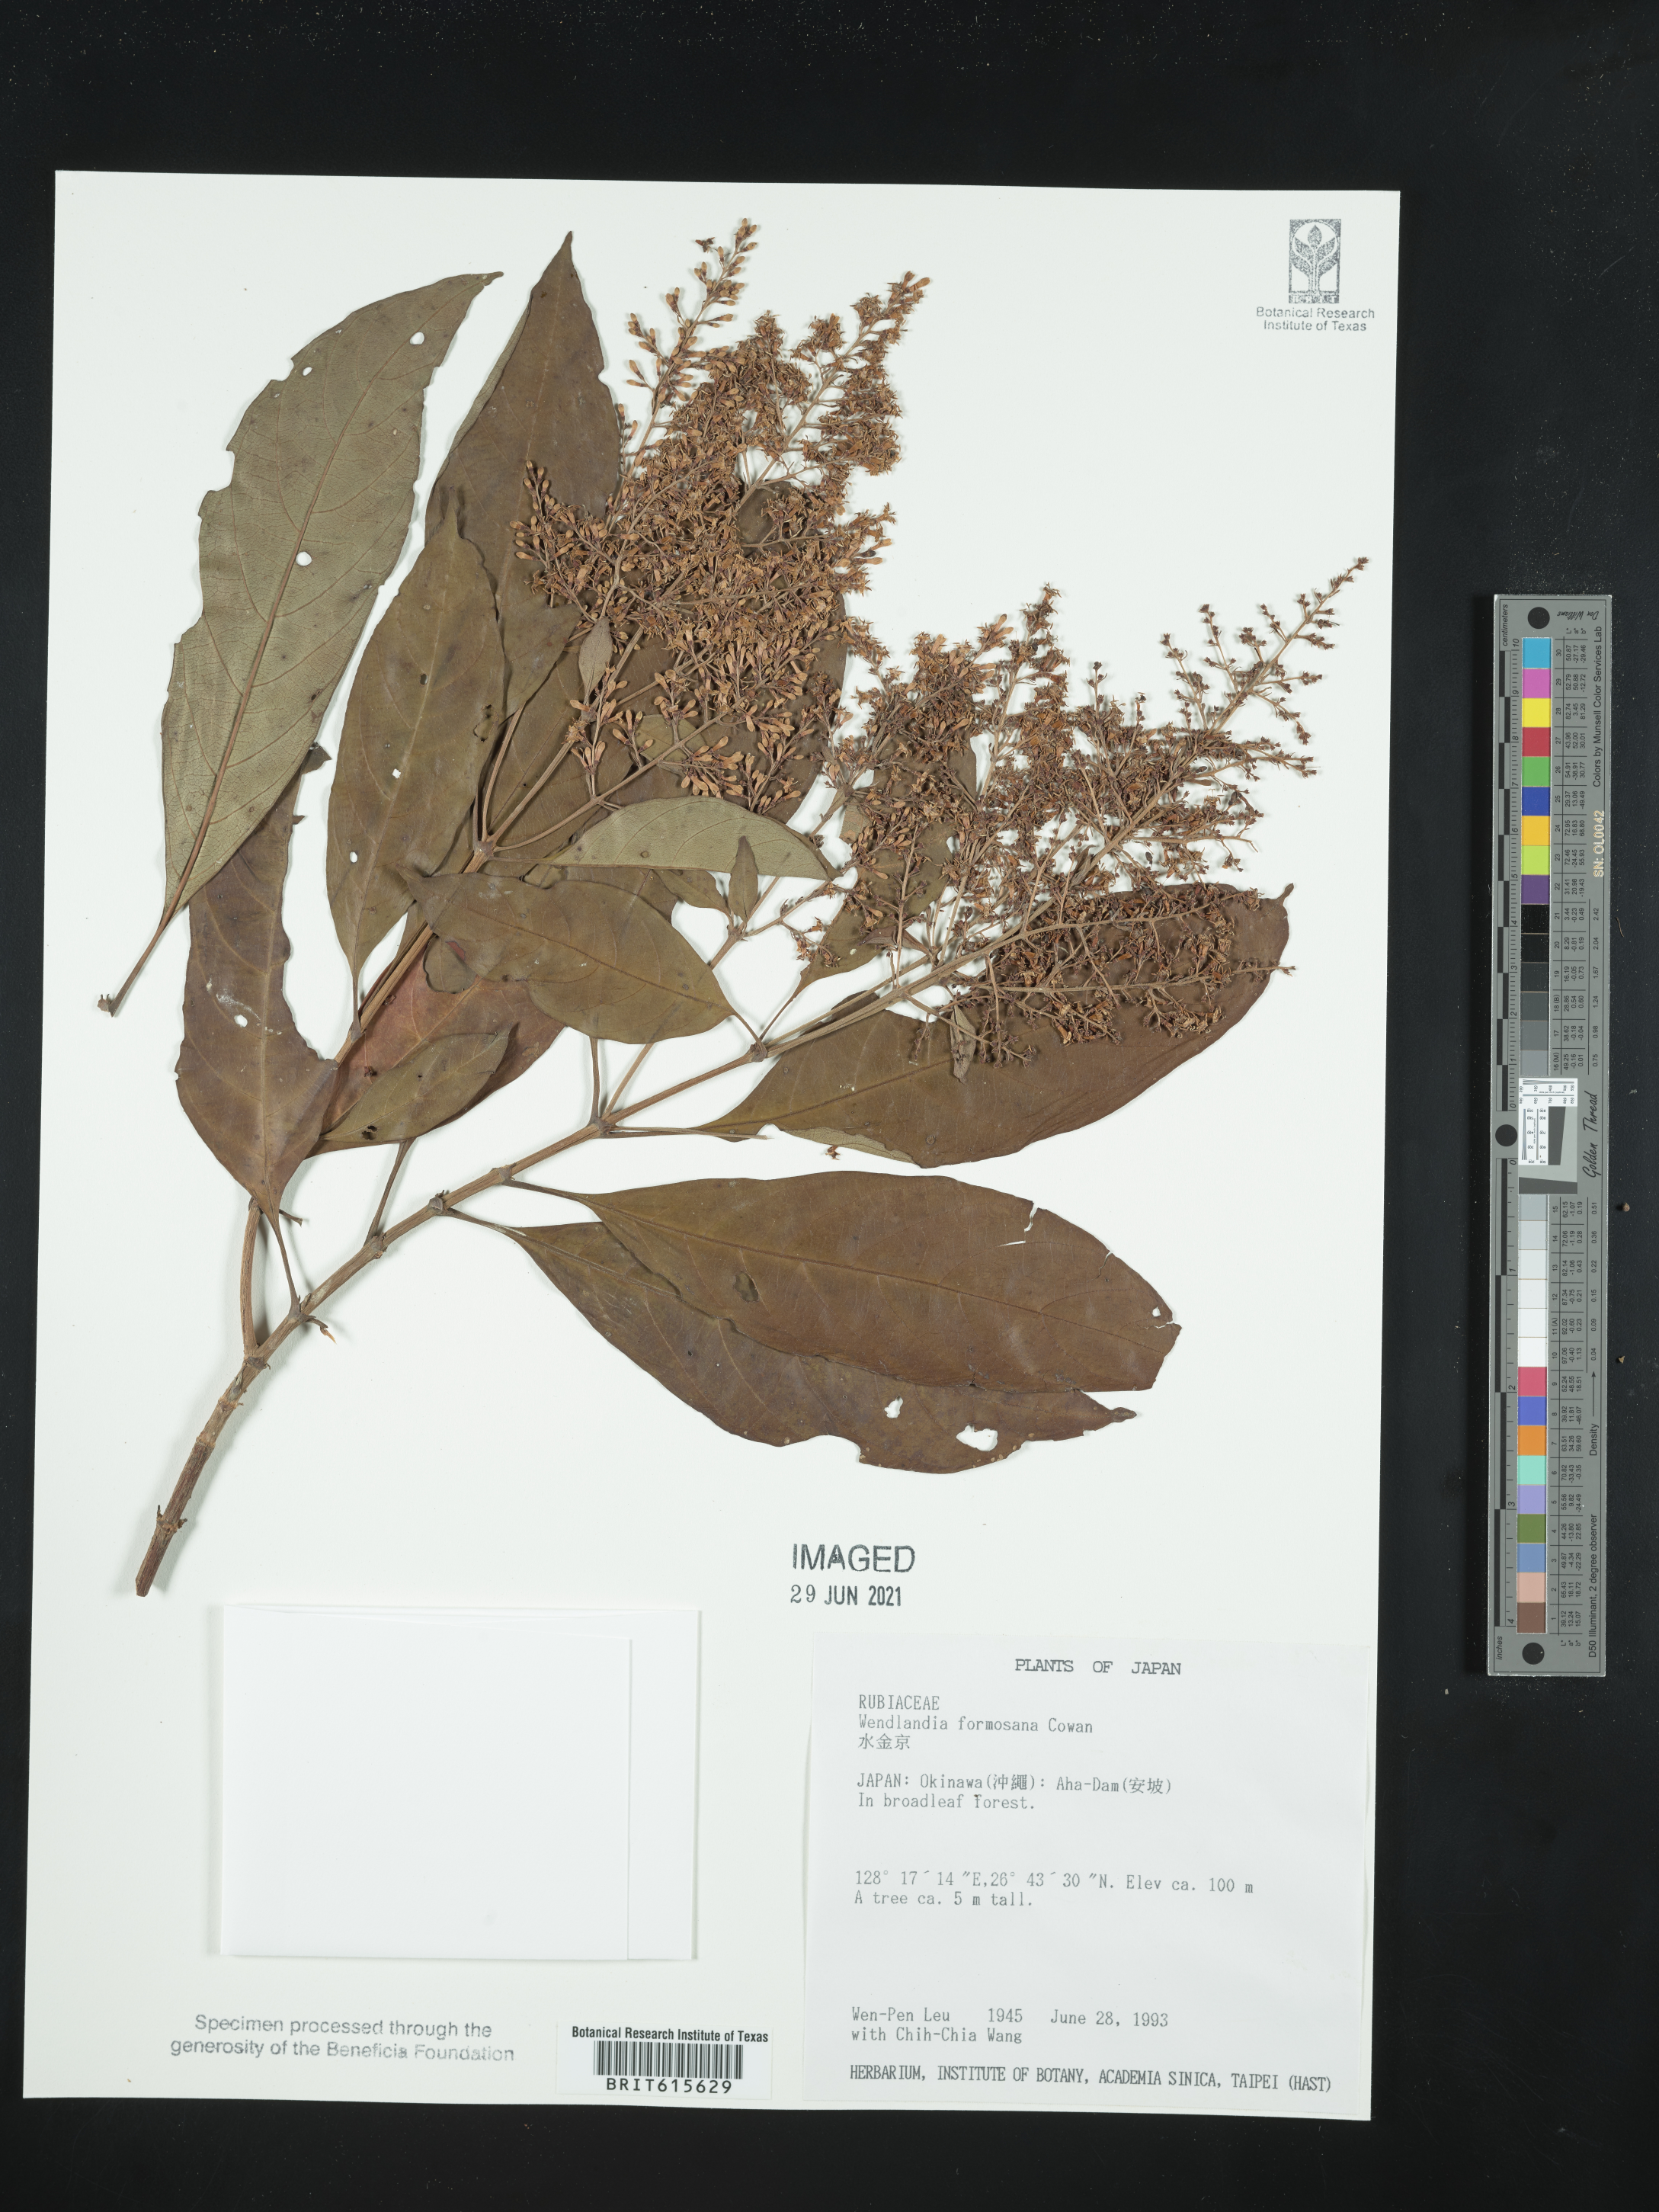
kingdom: Plantae
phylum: Tracheophyta
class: Magnoliopsida
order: Gentianales
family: Rubiaceae
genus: Wendlandia
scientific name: Wendlandia formosana
